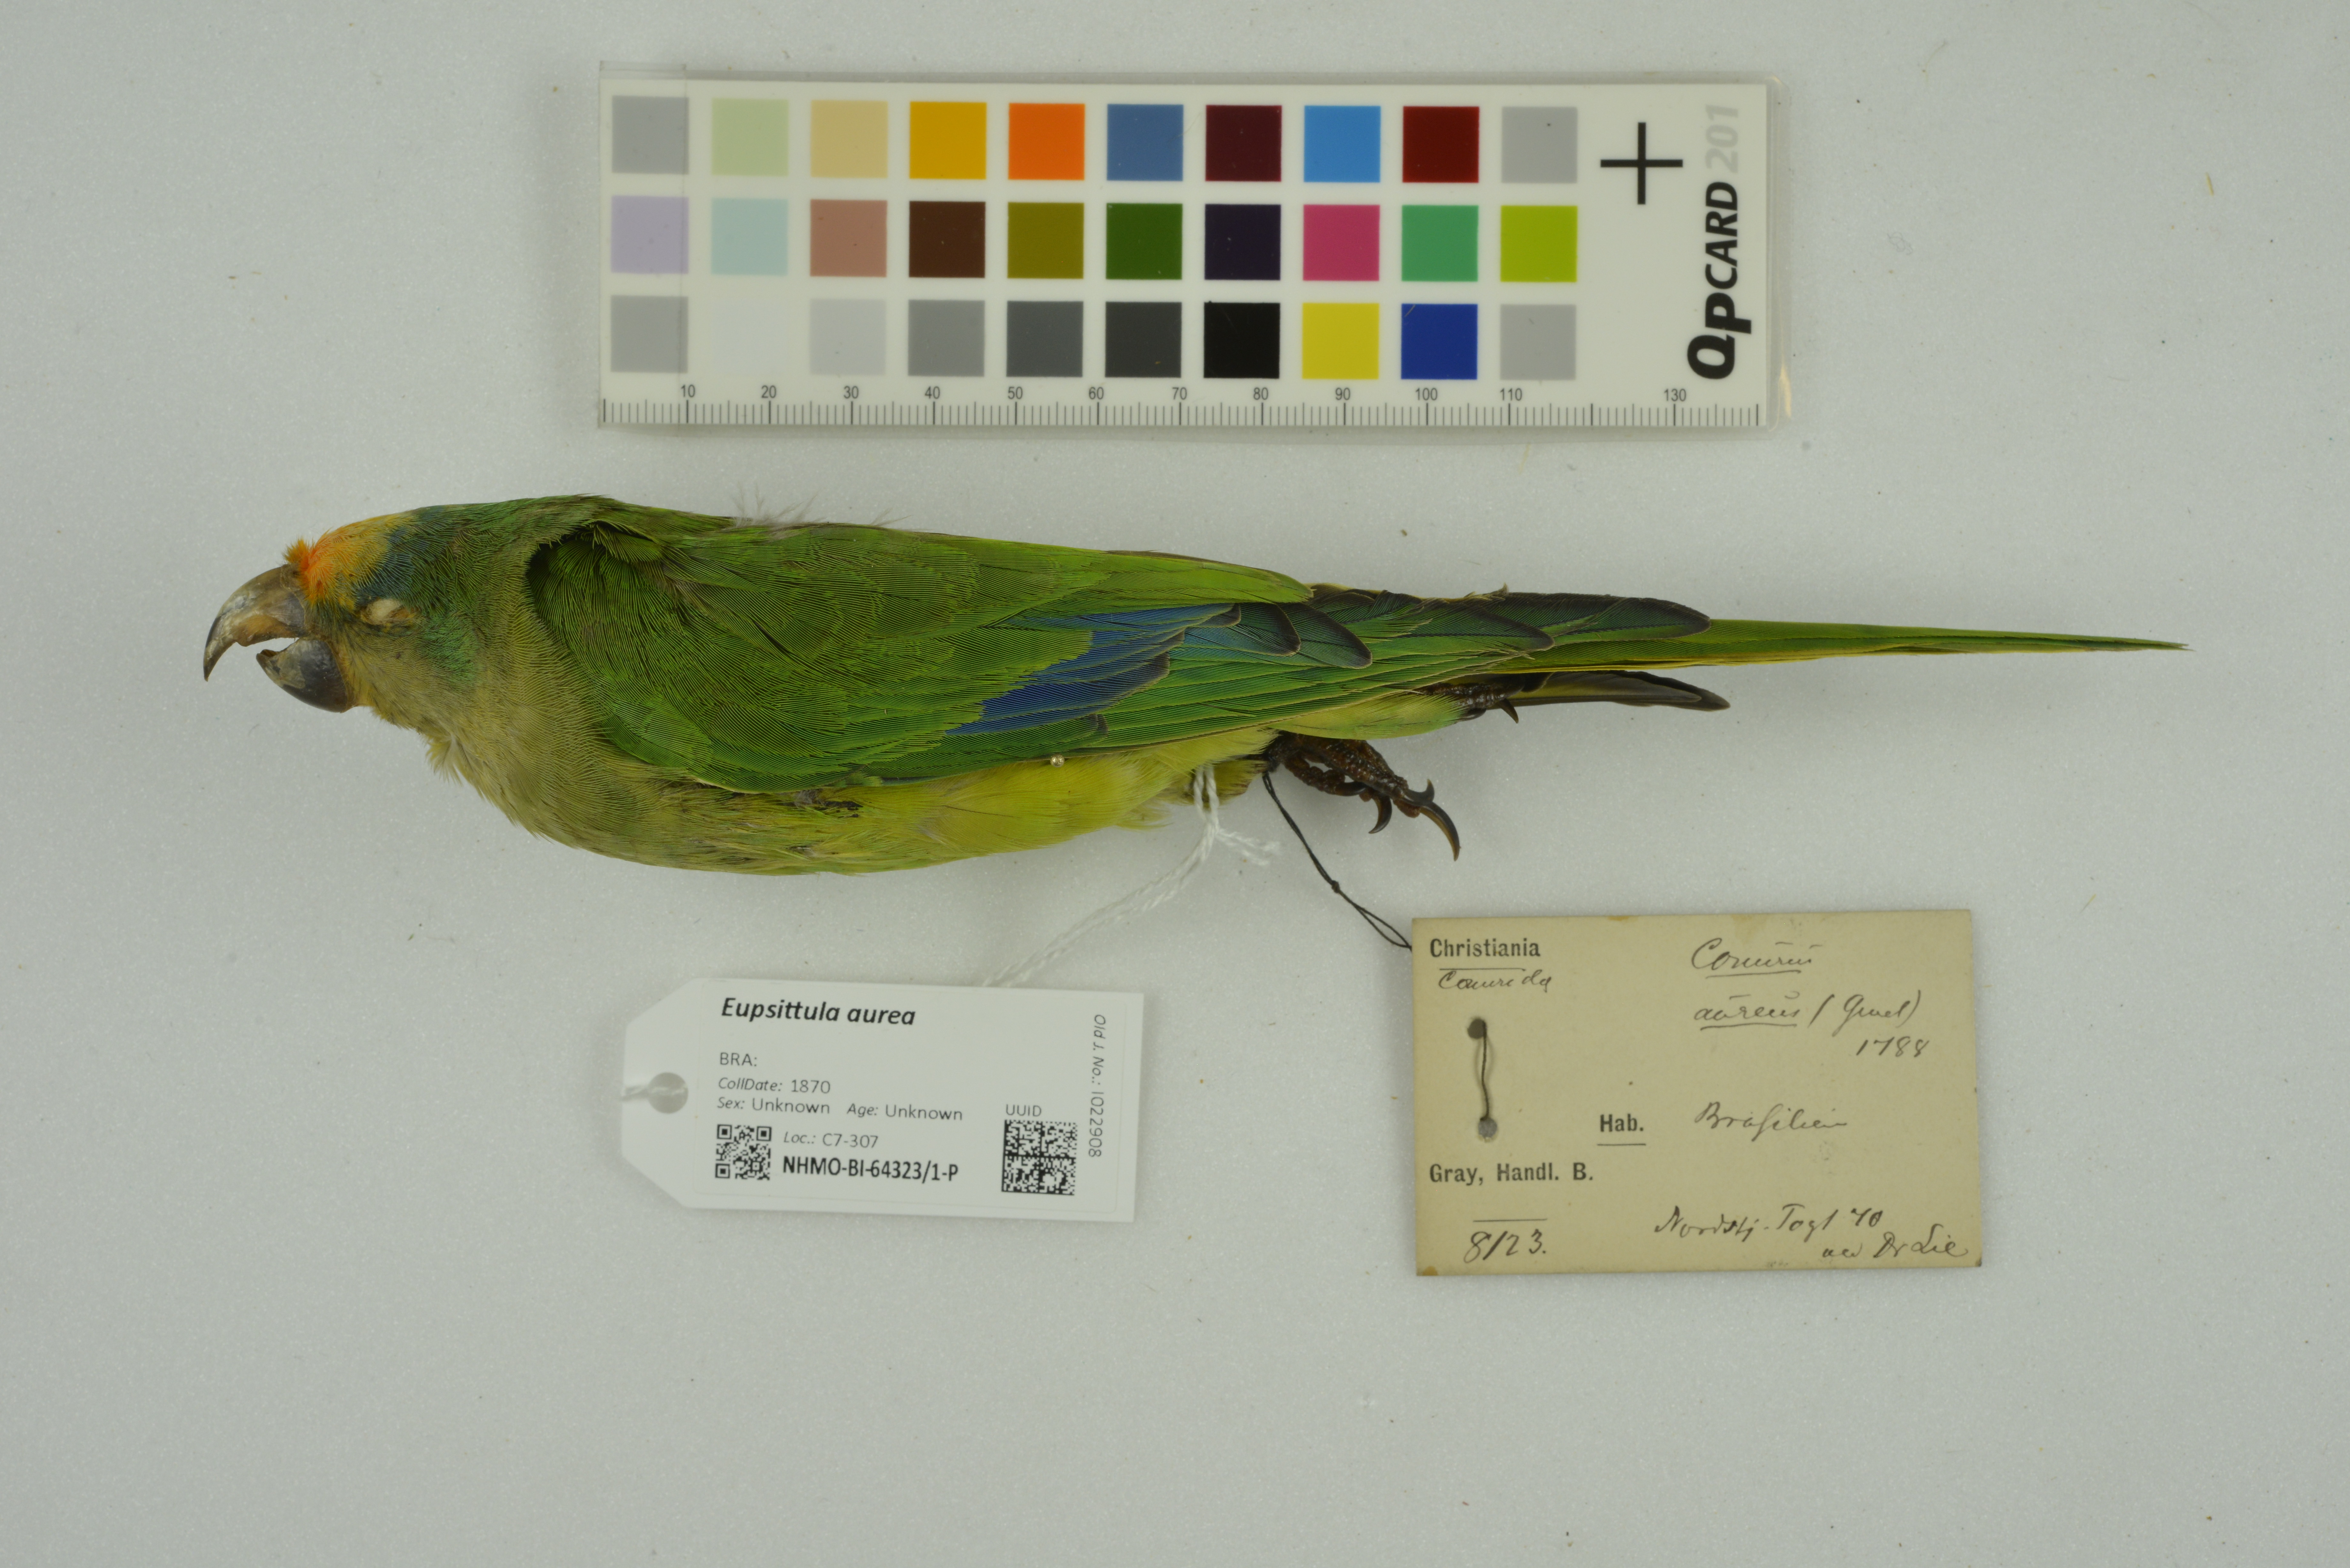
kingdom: Animalia
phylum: Chordata
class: Aves
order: Psittaciformes
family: Psittacidae
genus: Aratinga
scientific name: Aratinga aurea
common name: Peach-fronted parakeet
